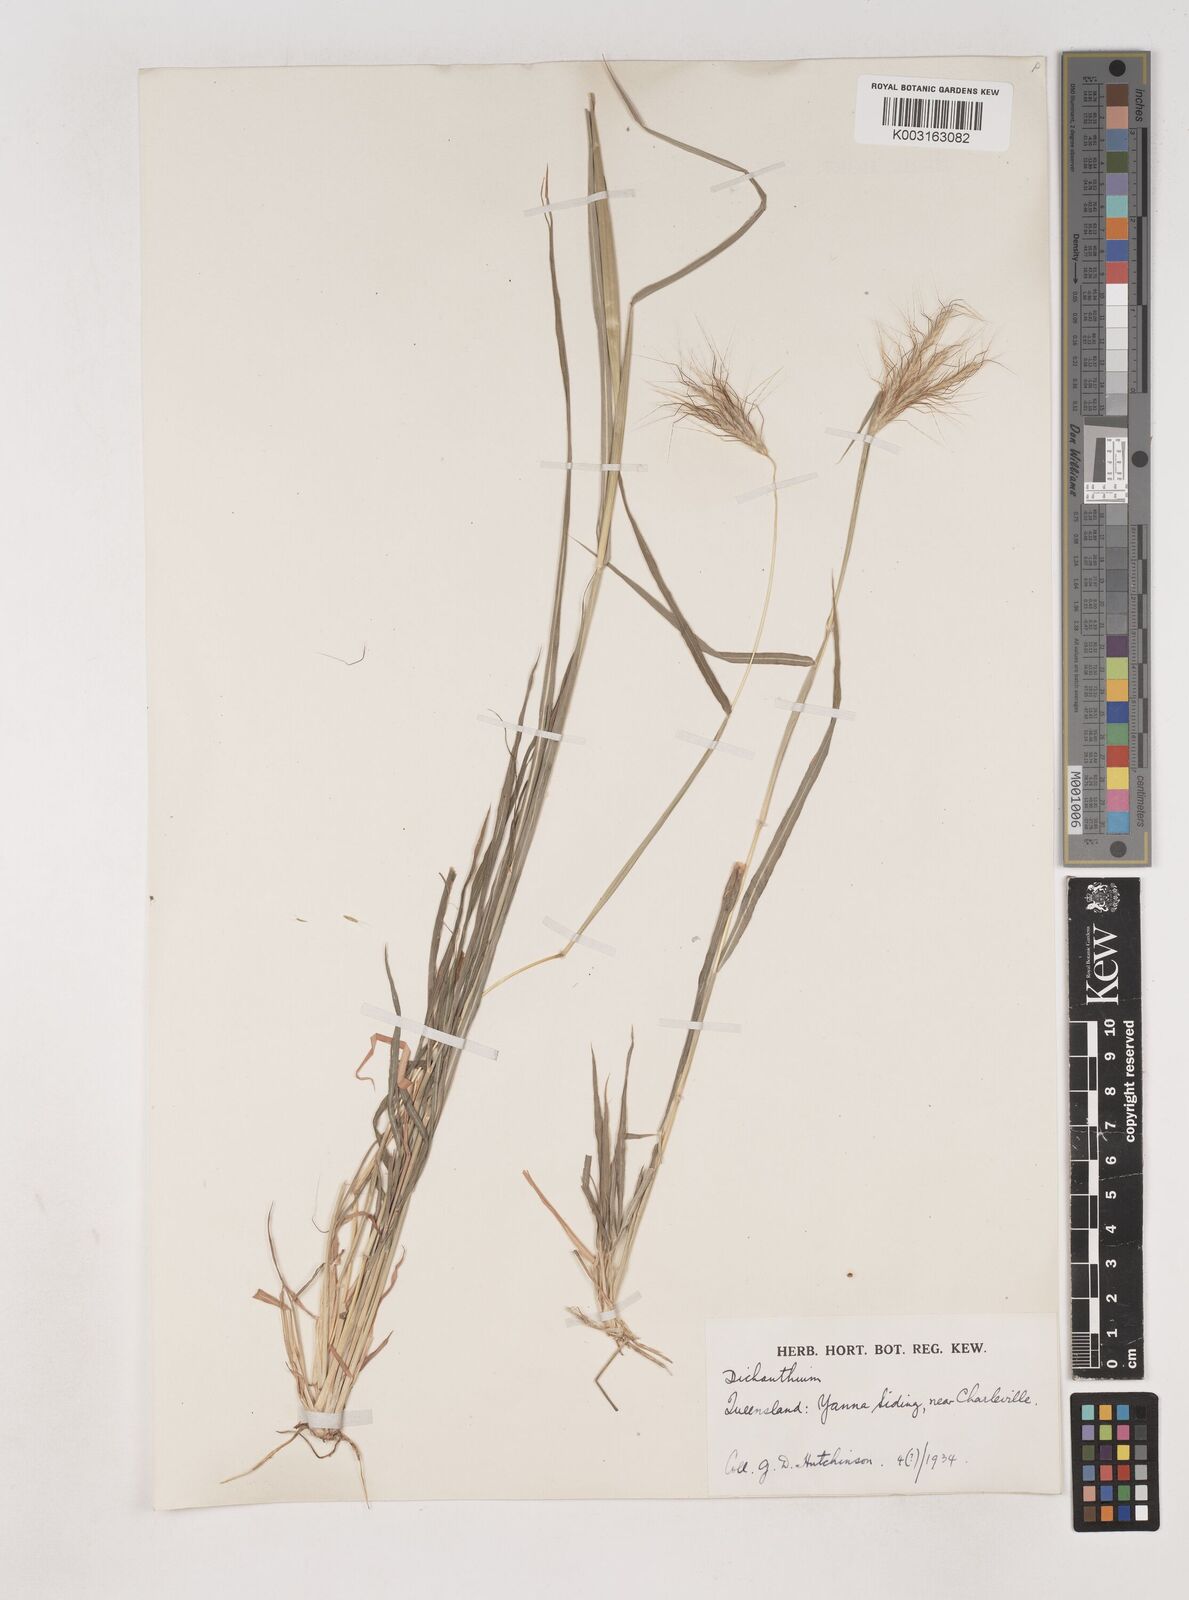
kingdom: Plantae
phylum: Tracheophyta
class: Liliopsida
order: Poales
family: Poaceae
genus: Dichanthium
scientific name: Dichanthium sericeum
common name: Silky bluestem
